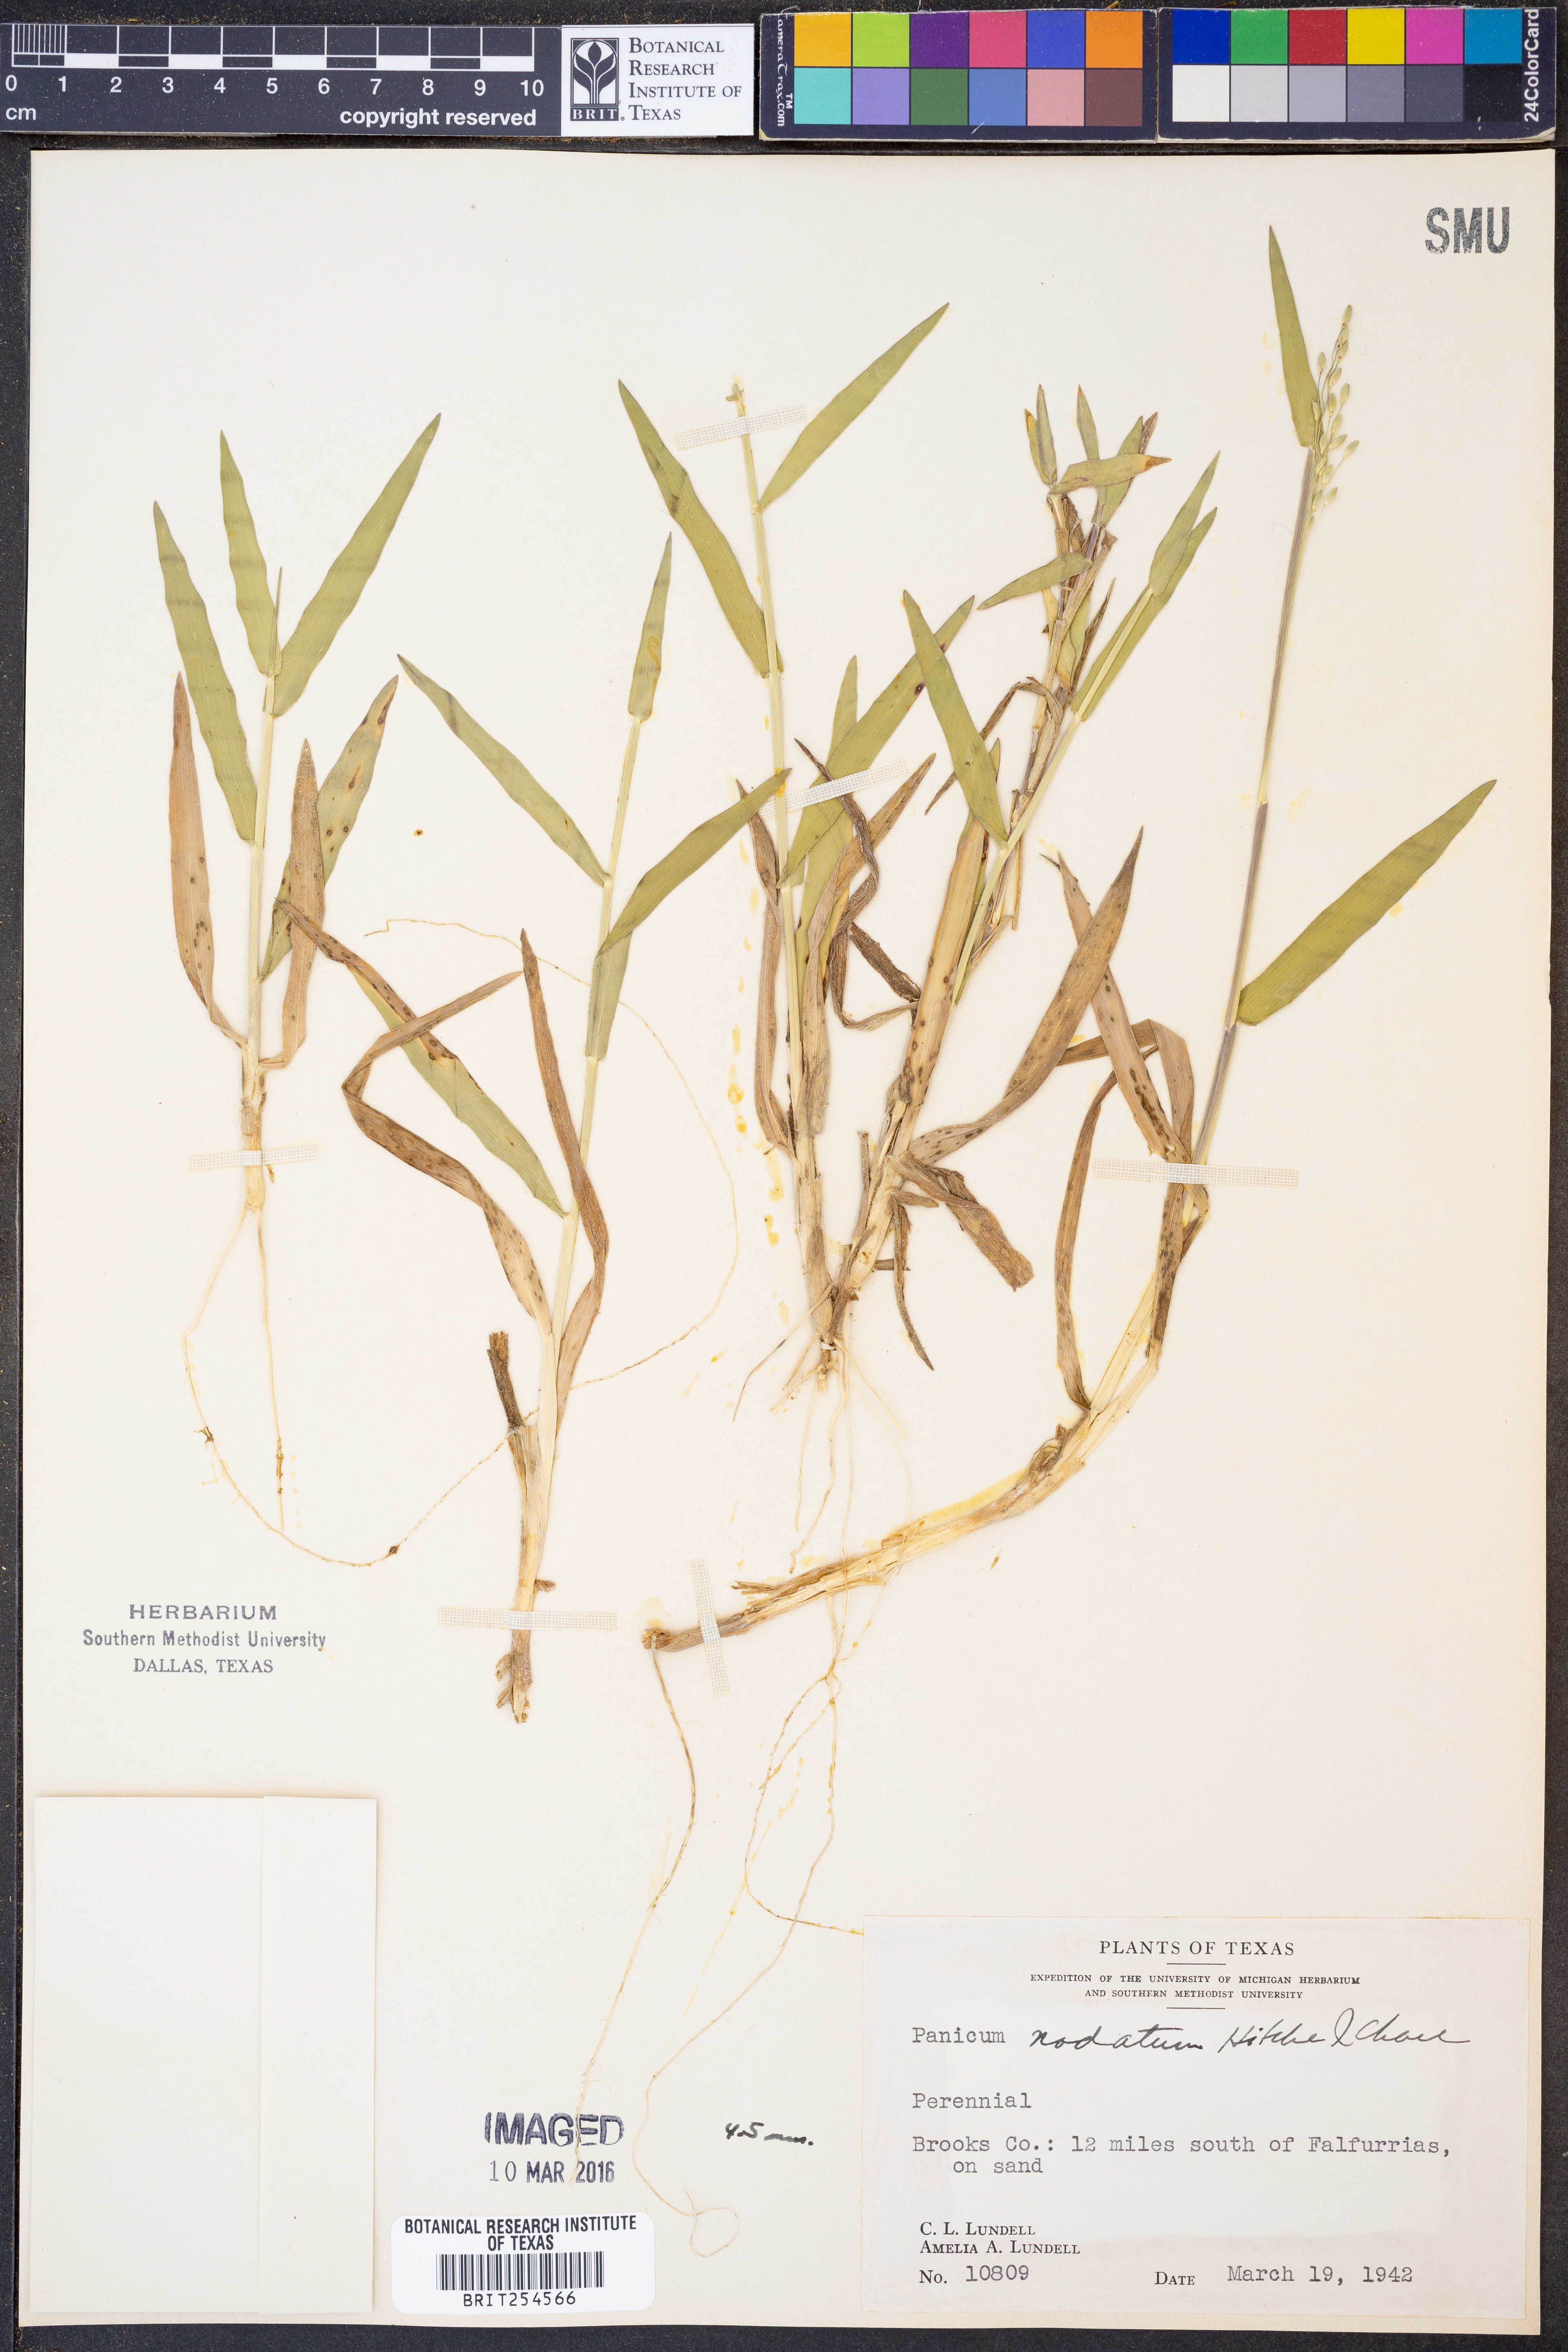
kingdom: Plantae
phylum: Tracheophyta
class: Liliopsida
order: Poales
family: Poaceae
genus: Dichanthelium
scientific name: Dichanthelium nodatum
